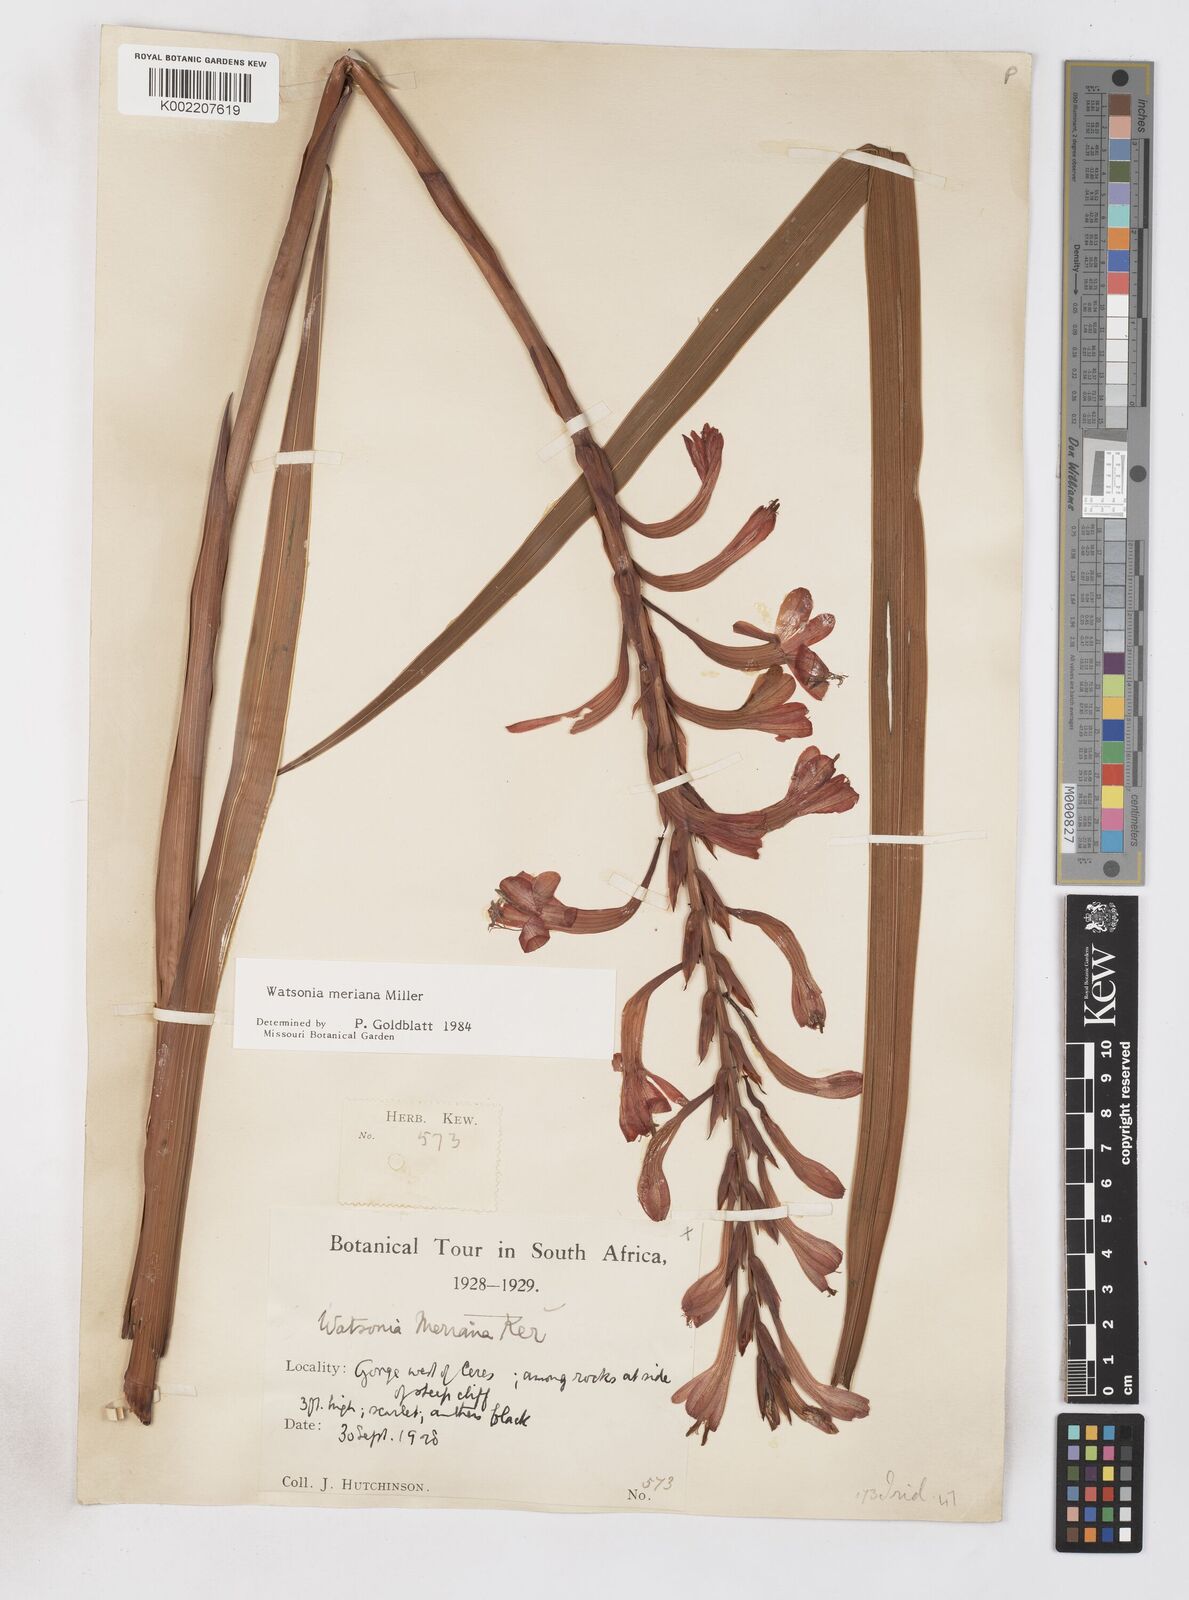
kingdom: Plantae
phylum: Tracheophyta
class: Liliopsida
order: Asparagales
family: Iridaceae
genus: Watsonia
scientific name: Watsonia meriana
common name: Bulbil bugle-lily
